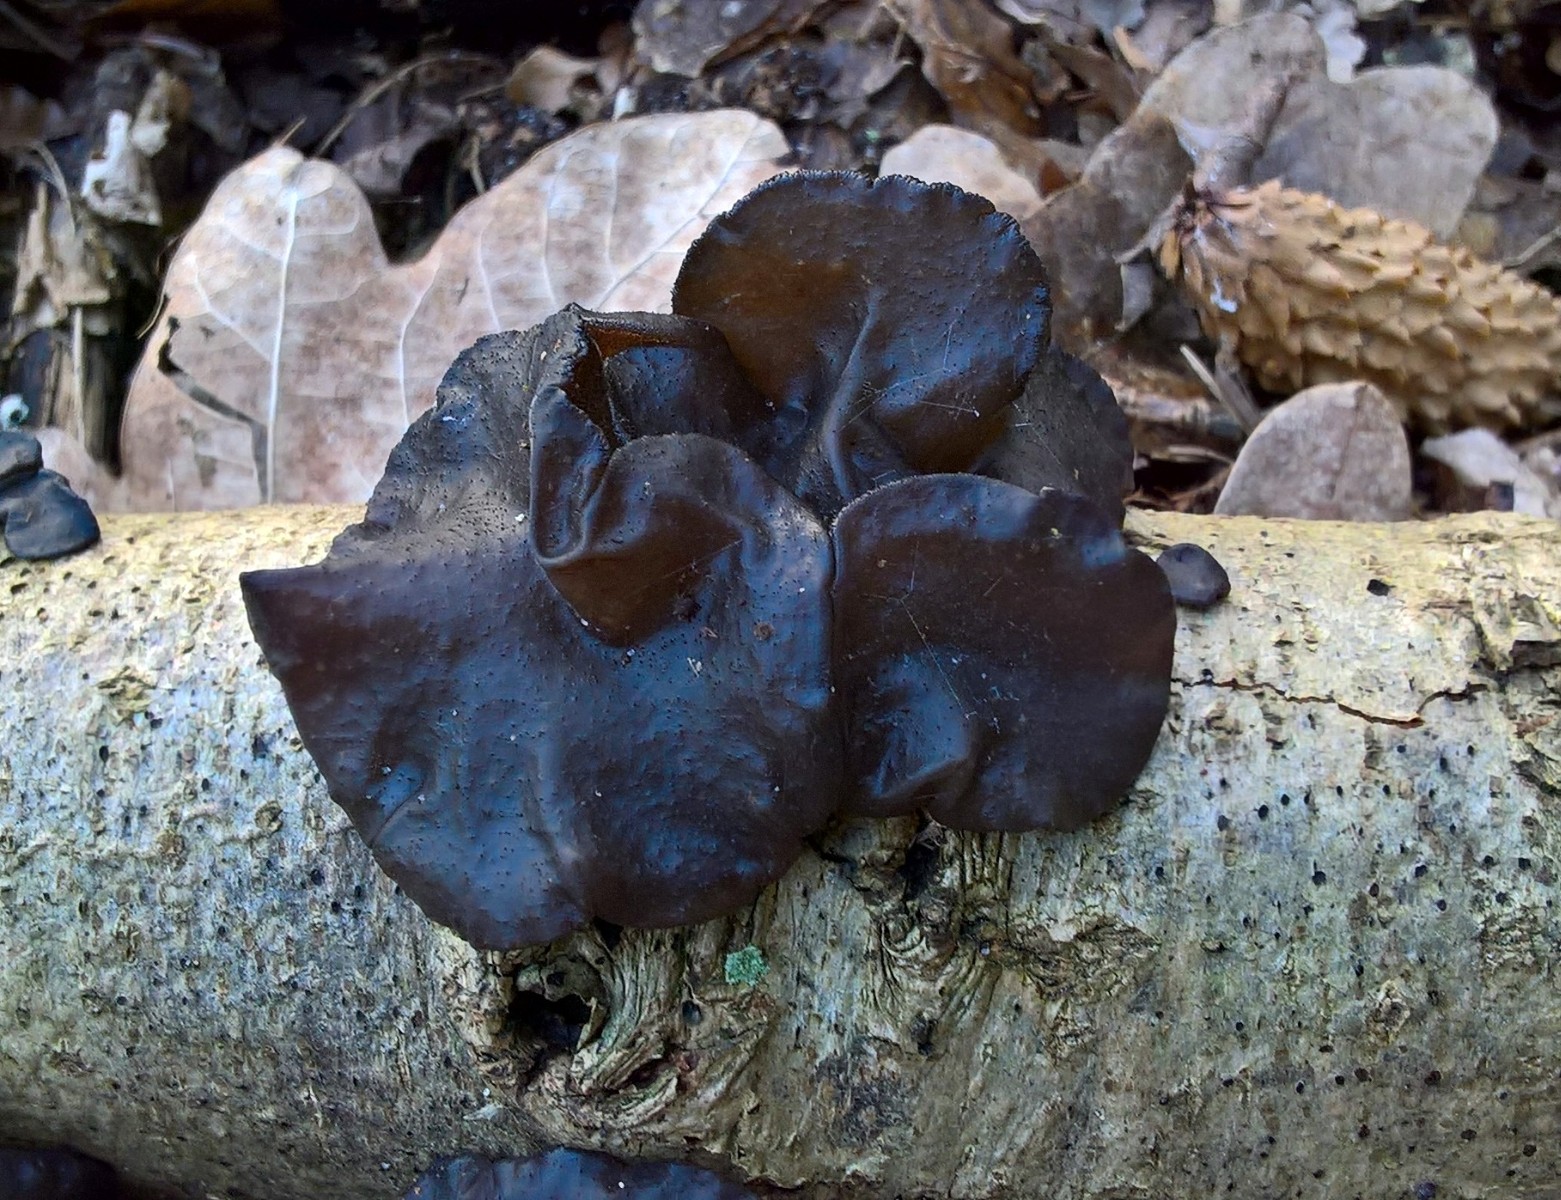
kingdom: Fungi
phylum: Basidiomycota
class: Agaricomycetes
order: Auriculariales
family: Auriculariaceae
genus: Exidia
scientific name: Exidia glandulosa
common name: ege-bævretop
